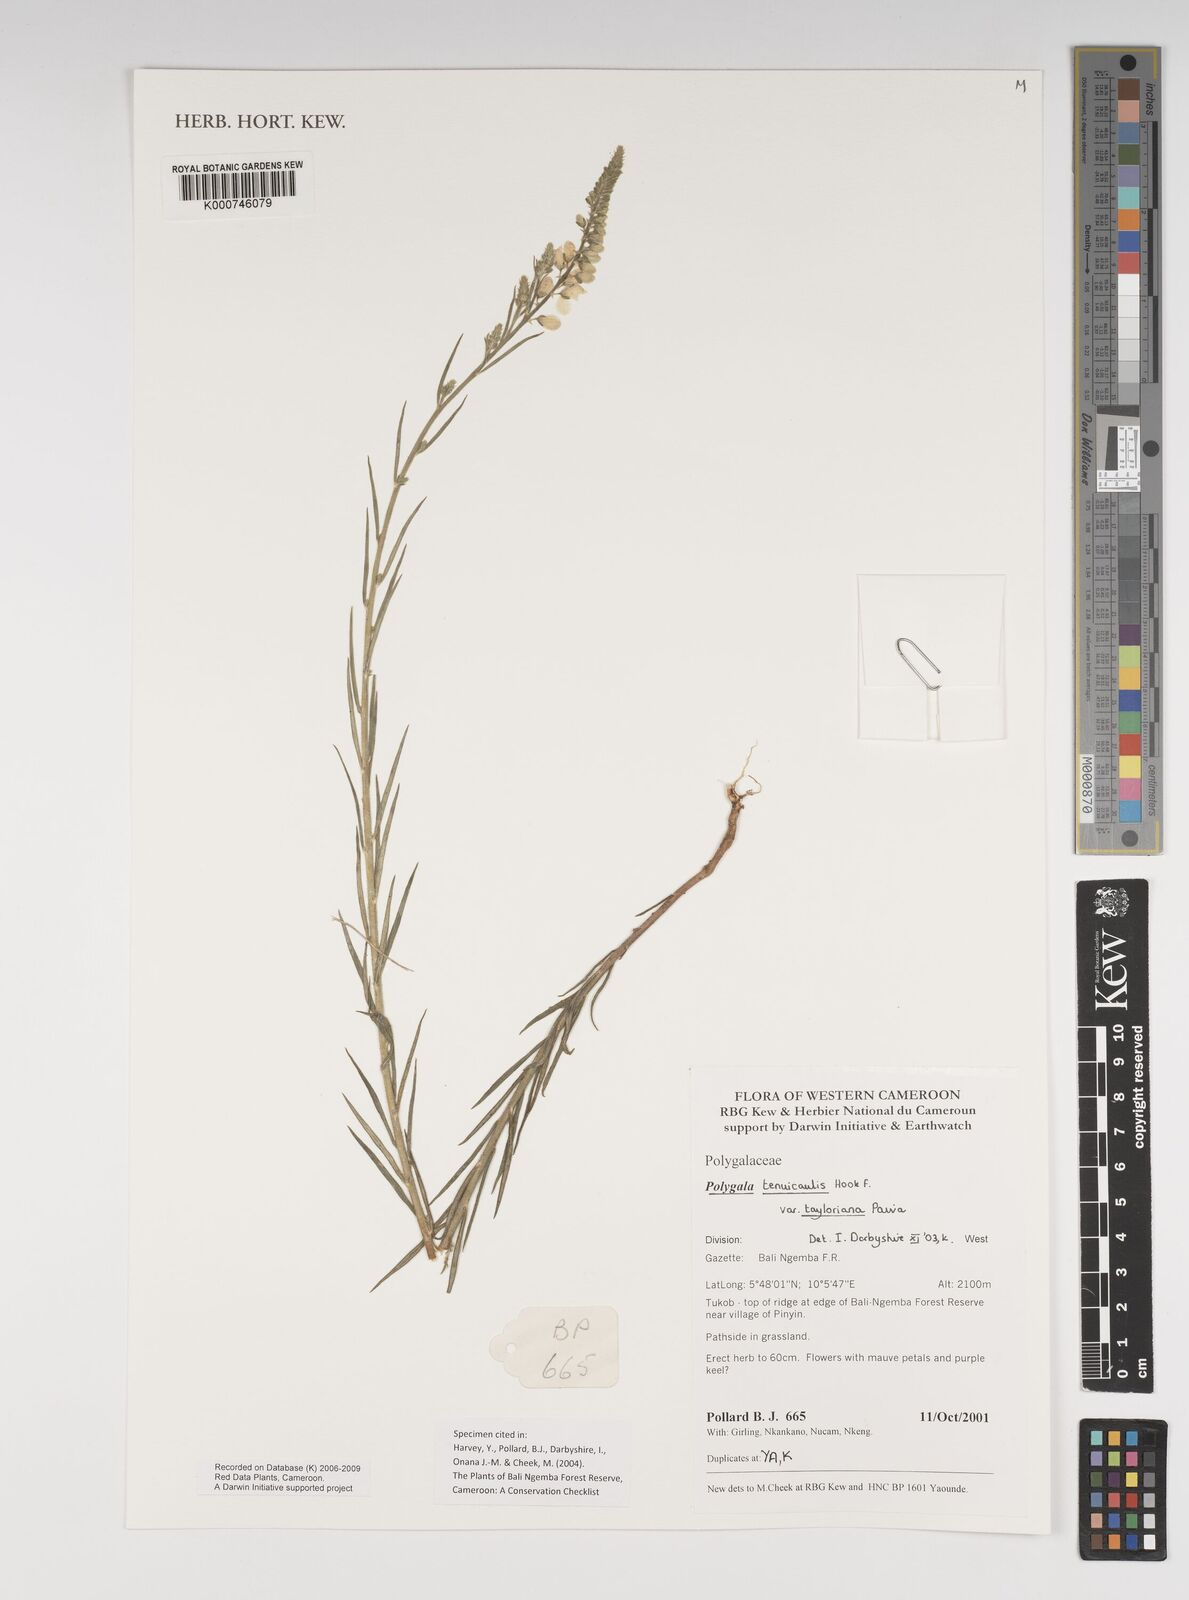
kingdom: Plantae
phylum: Tracheophyta
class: Magnoliopsida
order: Fabales
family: Polygalaceae
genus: Polygala
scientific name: Polygala tenuicaulis
